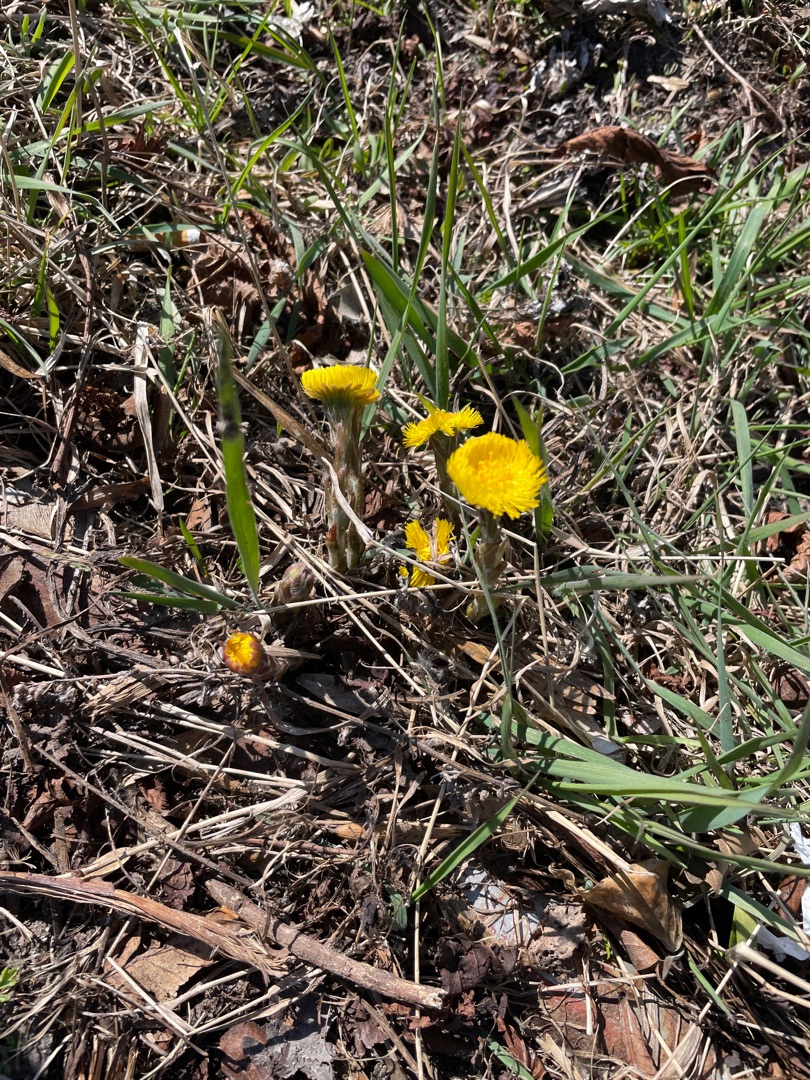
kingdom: Plantae
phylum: Tracheophyta
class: Magnoliopsida
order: Asterales
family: Asteraceae
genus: Tussilago
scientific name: Tussilago farfara
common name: Følfod
